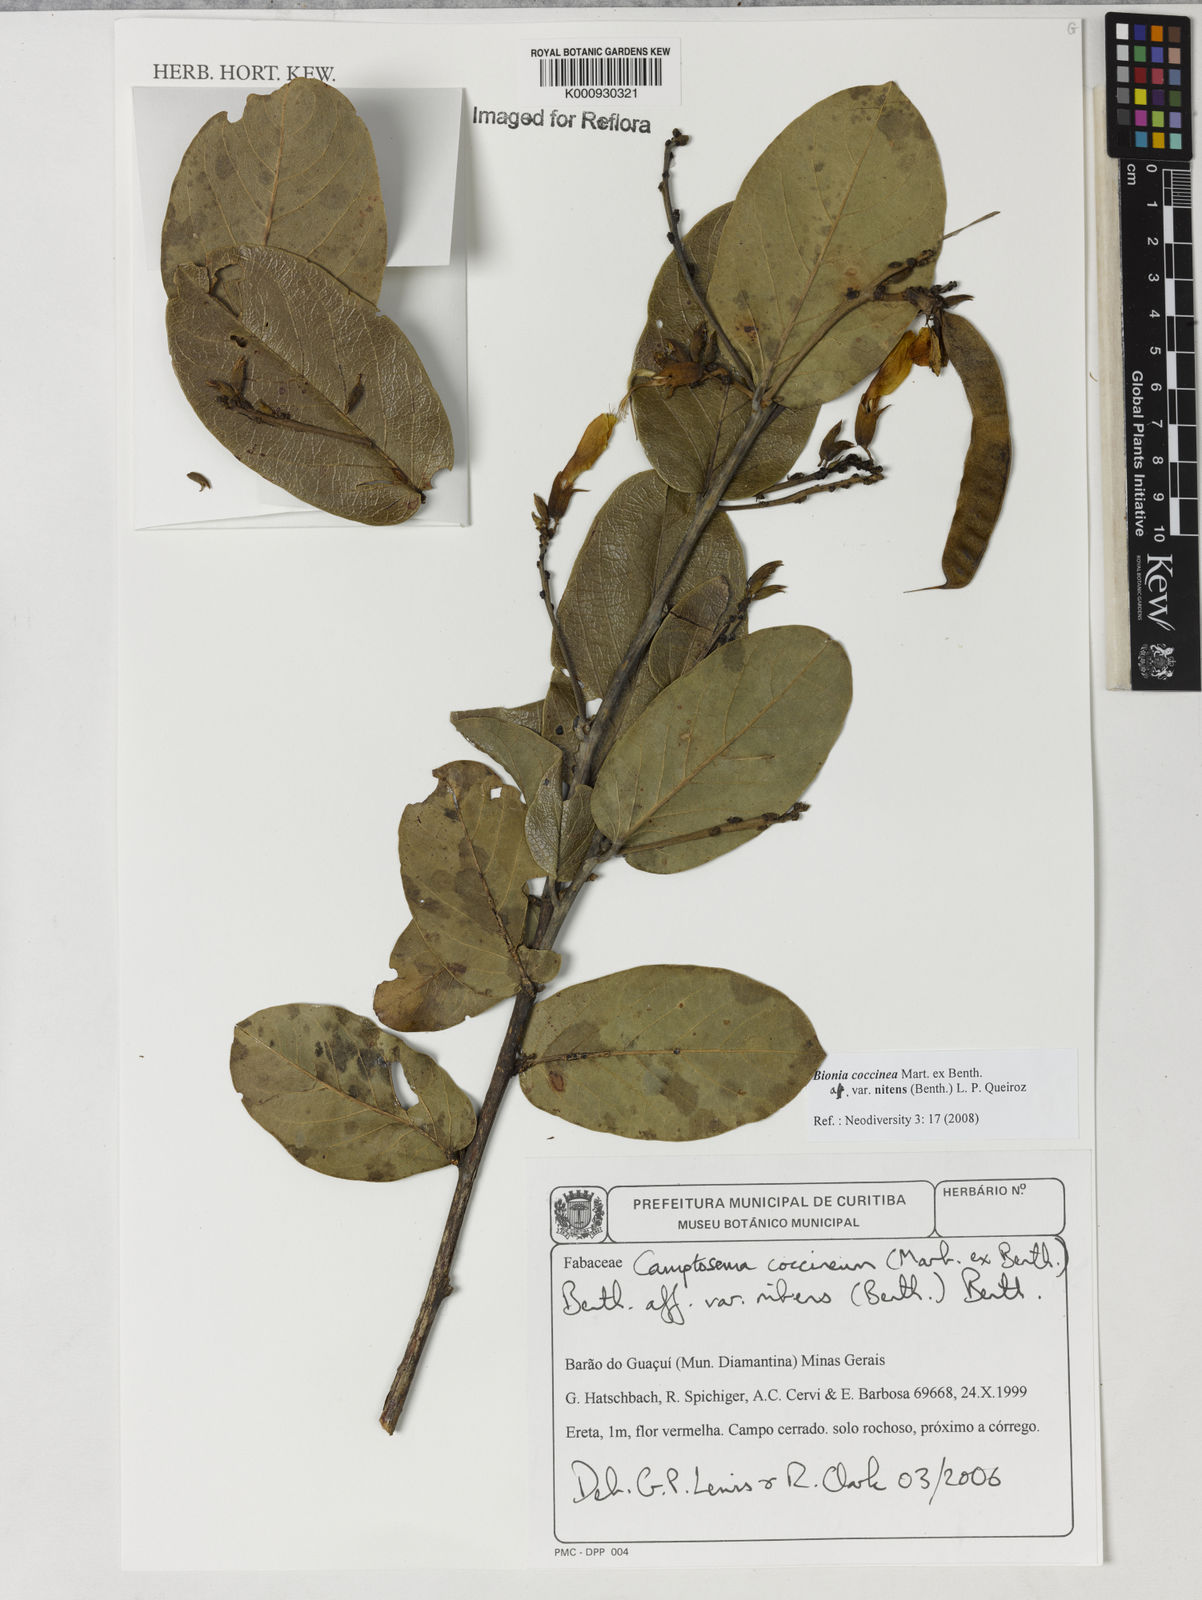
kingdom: Plantae
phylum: Tracheophyta
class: Magnoliopsida
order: Fabales
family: Fabaceae
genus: Camptosema
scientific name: Camptosema coccineum
